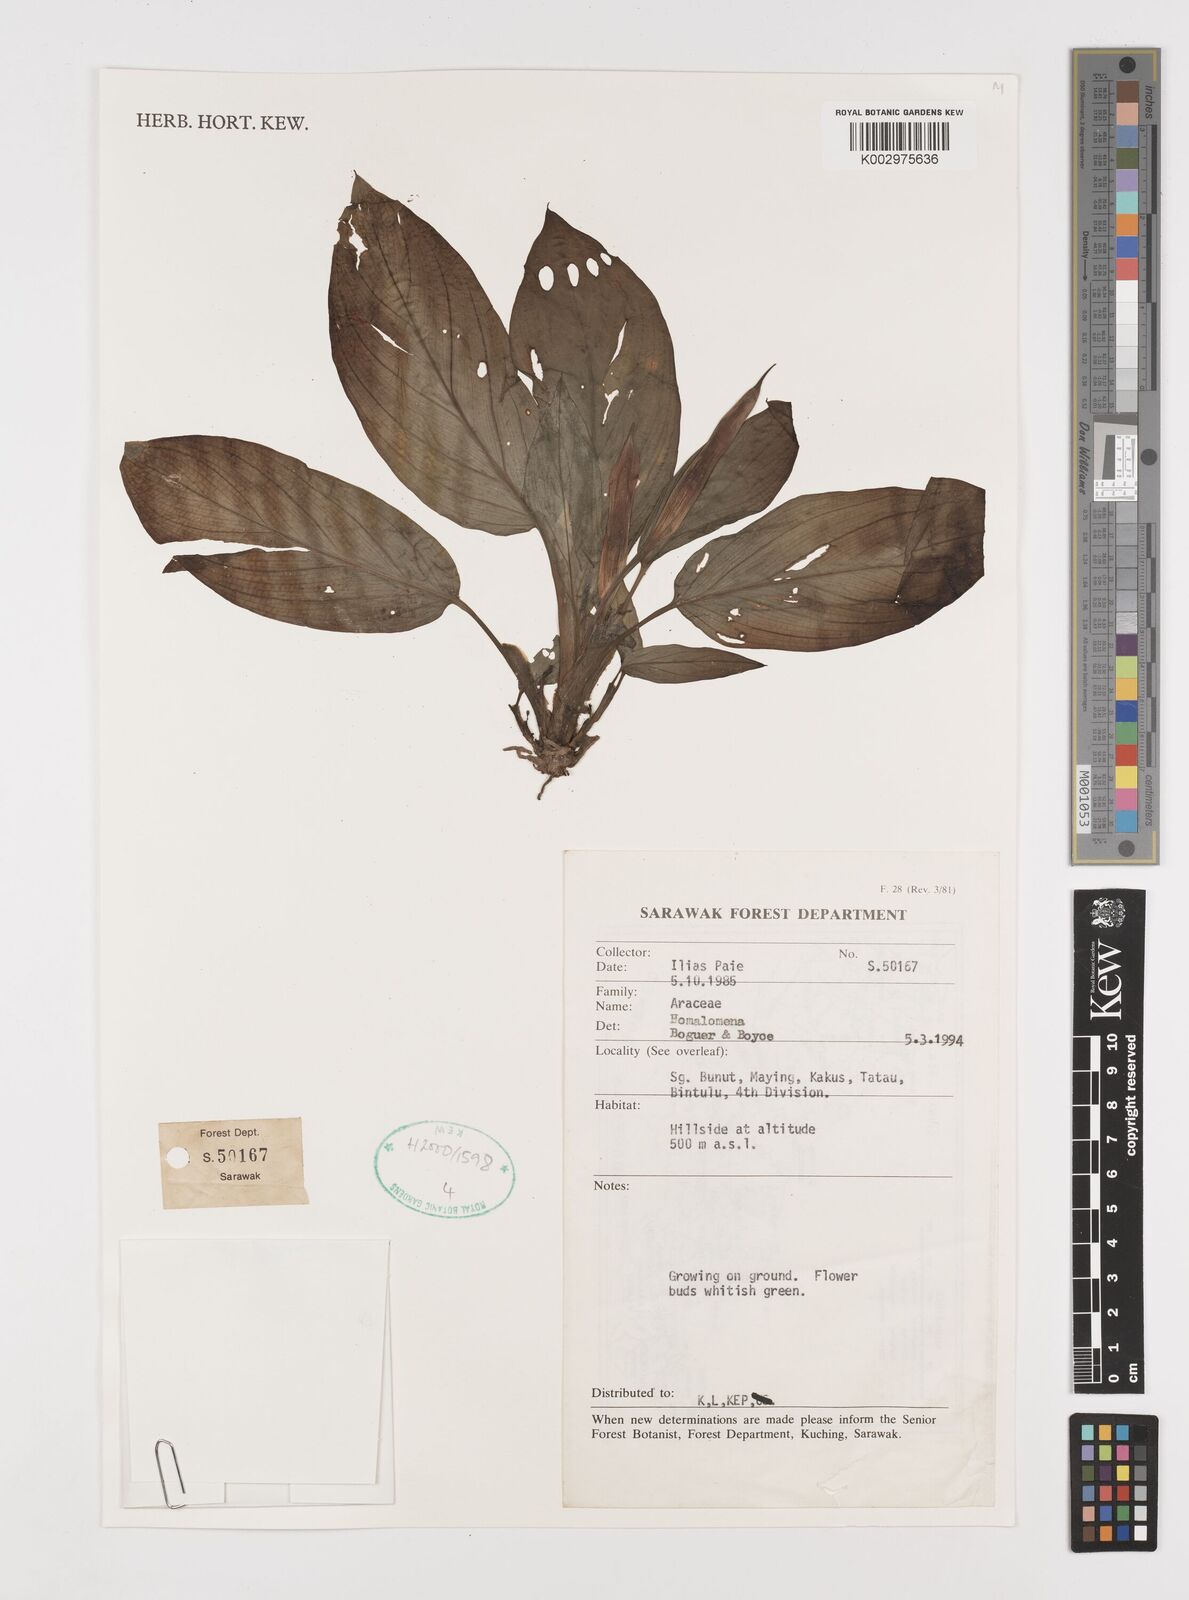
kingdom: Plantae
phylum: Tracheophyta
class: Liliopsida
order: Alismatales
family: Araceae
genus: Homalomena
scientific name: Homalomena
